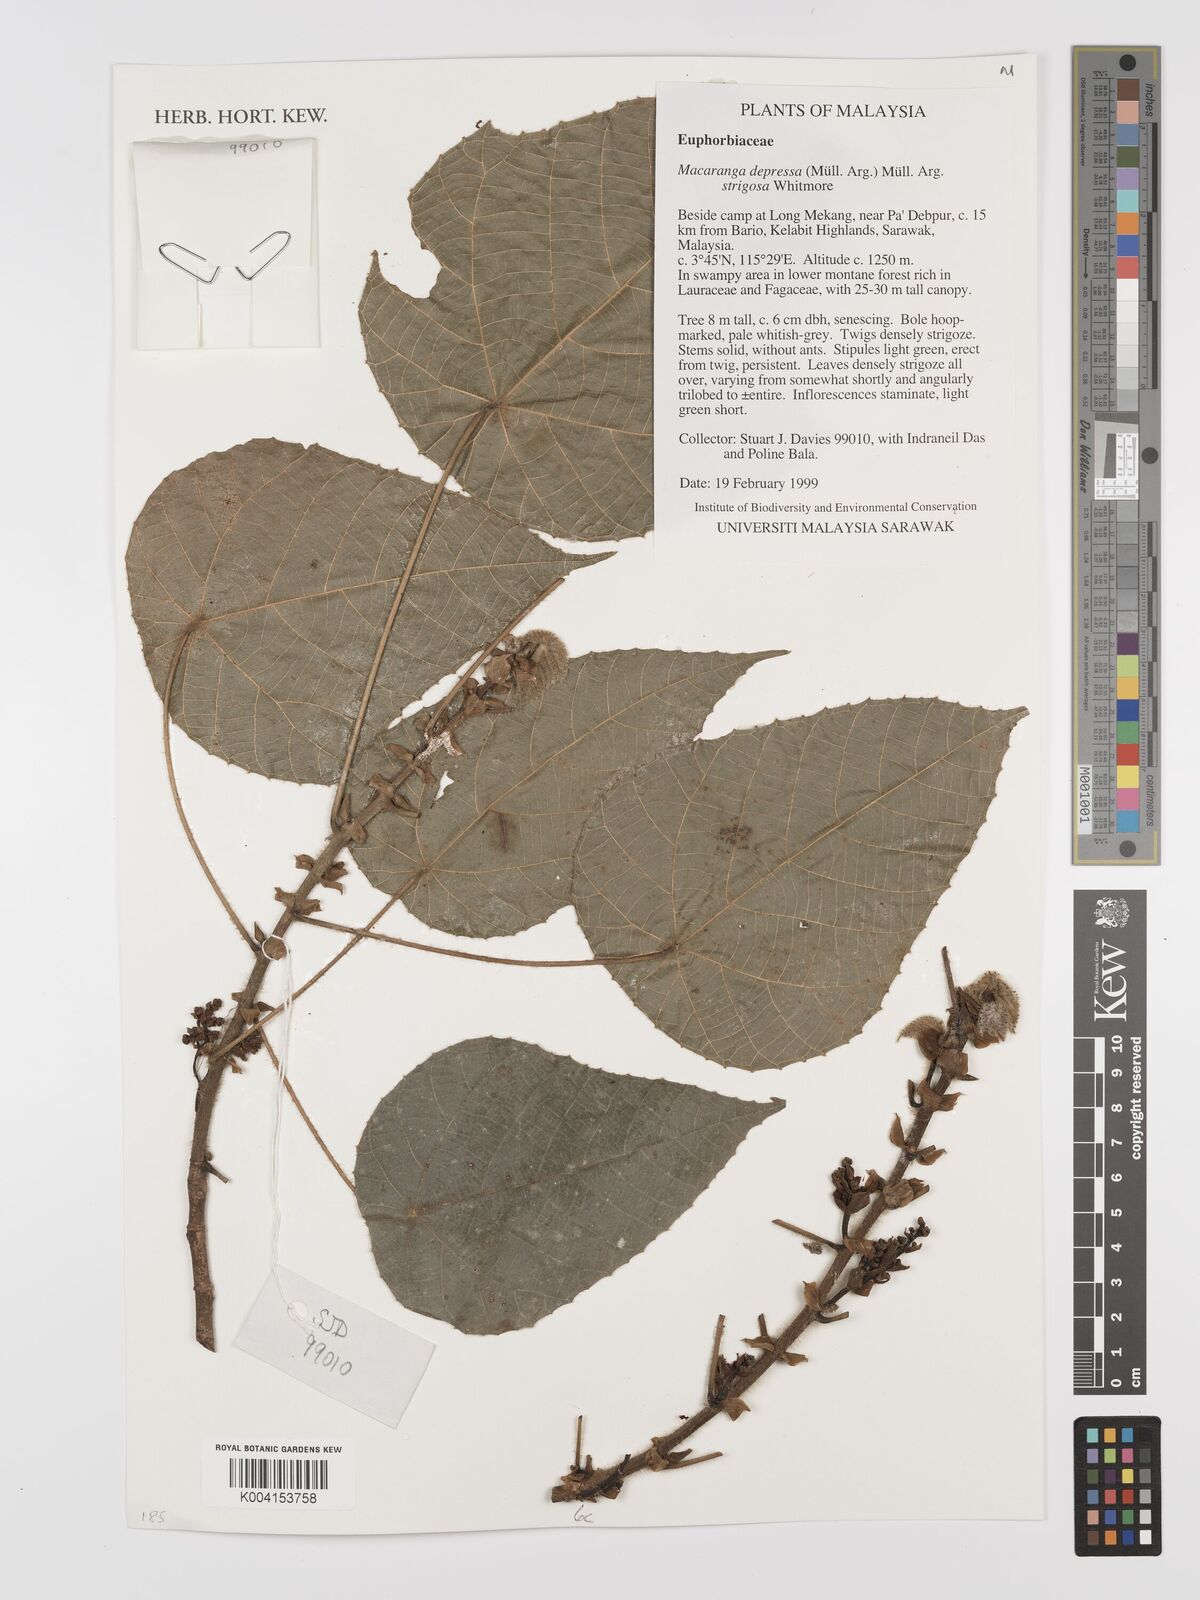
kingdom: Plantae
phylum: Tracheophyta
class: Magnoliopsida
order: Malpighiales
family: Euphorbiaceae
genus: Macaranga
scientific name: Macaranga depressa
